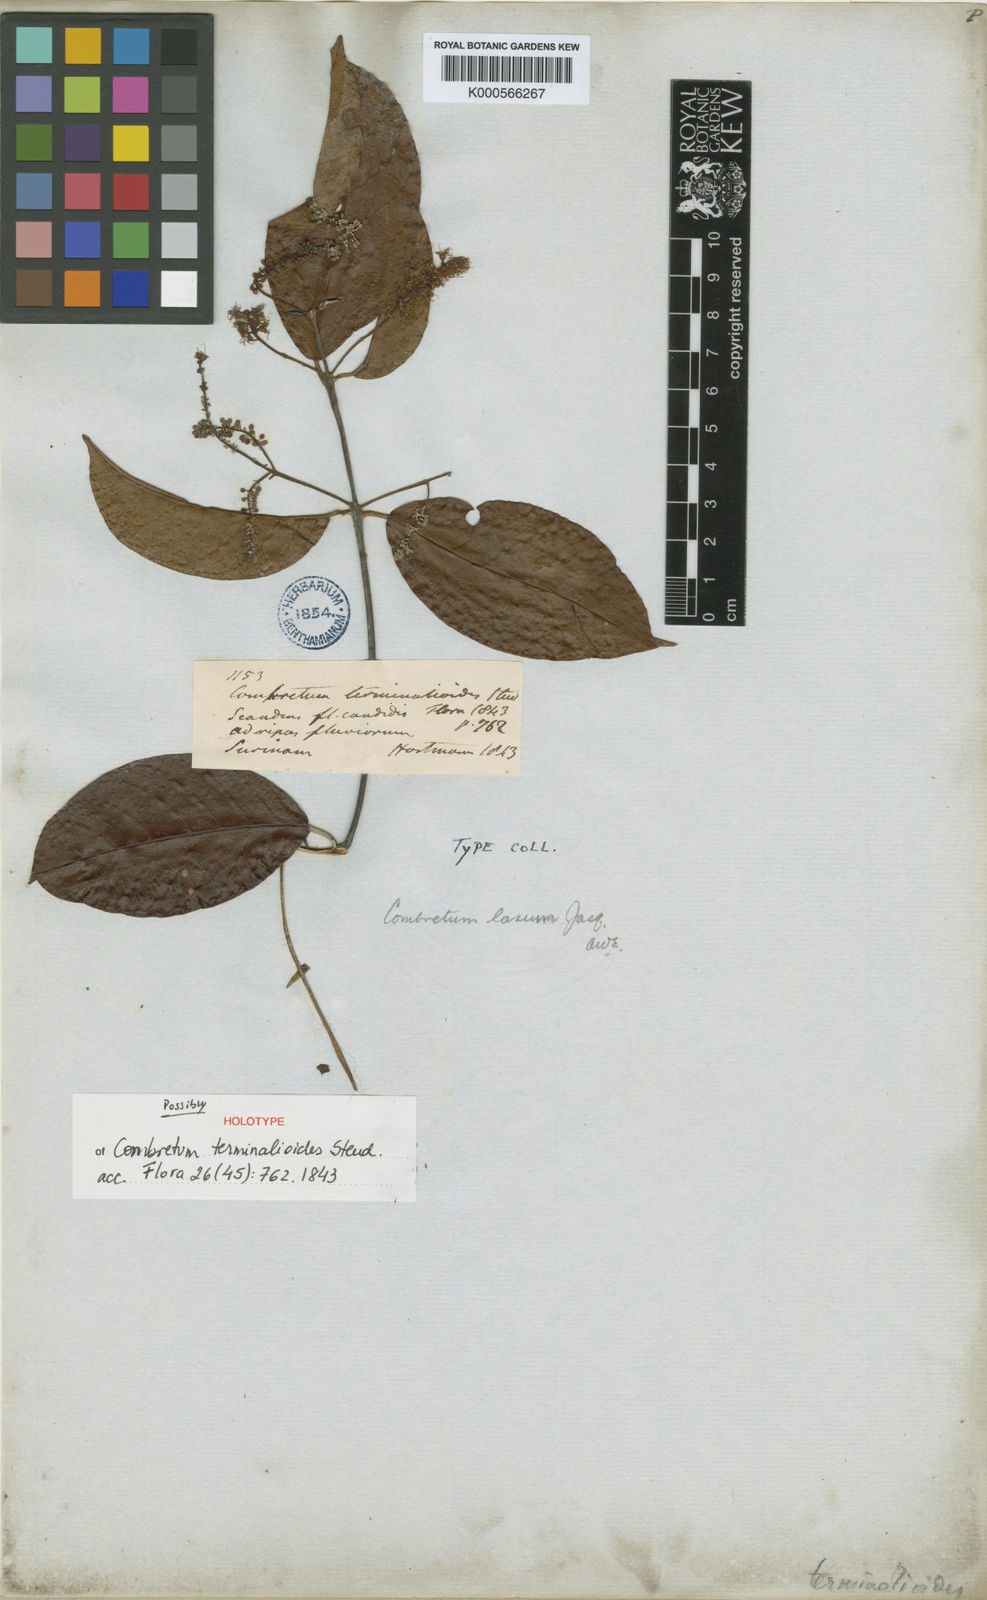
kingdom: Plantae
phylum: Tracheophyta
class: Magnoliopsida
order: Myrtales
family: Combretaceae
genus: Combretum
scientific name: Combretum laxum
